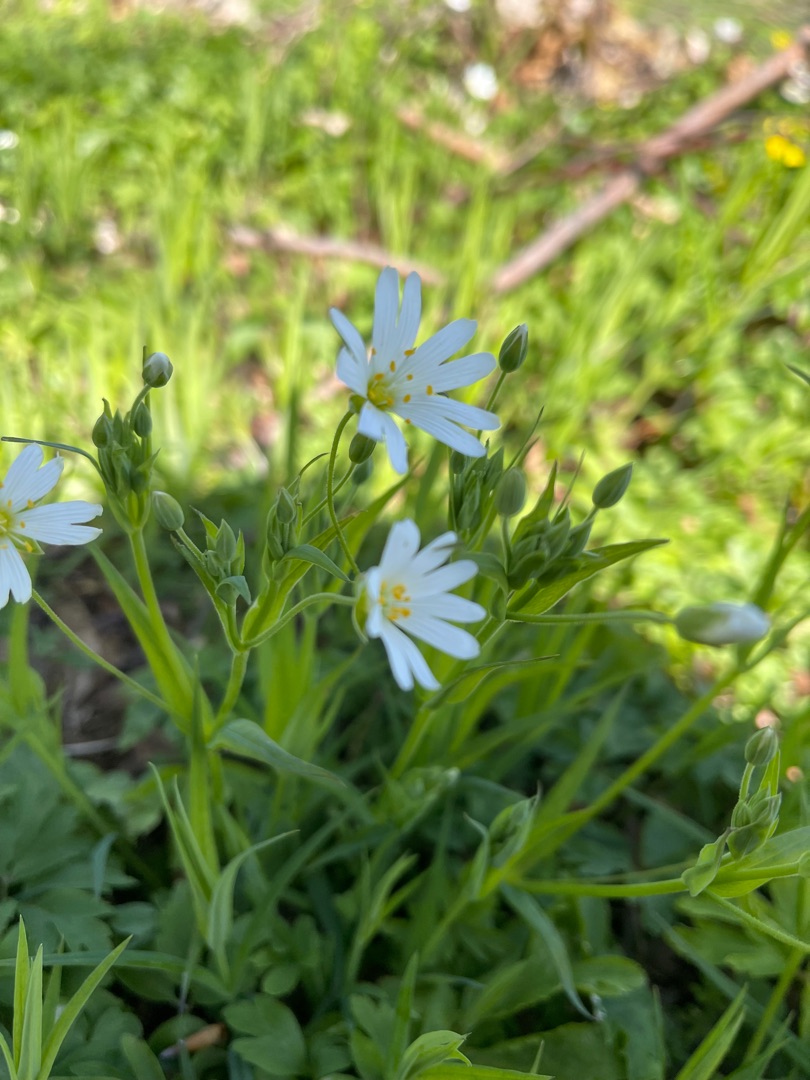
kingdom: Plantae
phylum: Tracheophyta
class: Magnoliopsida
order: Caryophyllales
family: Caryophyllaceae
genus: Rabelera
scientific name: Rabelera holostea
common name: Stor fladstjerne
